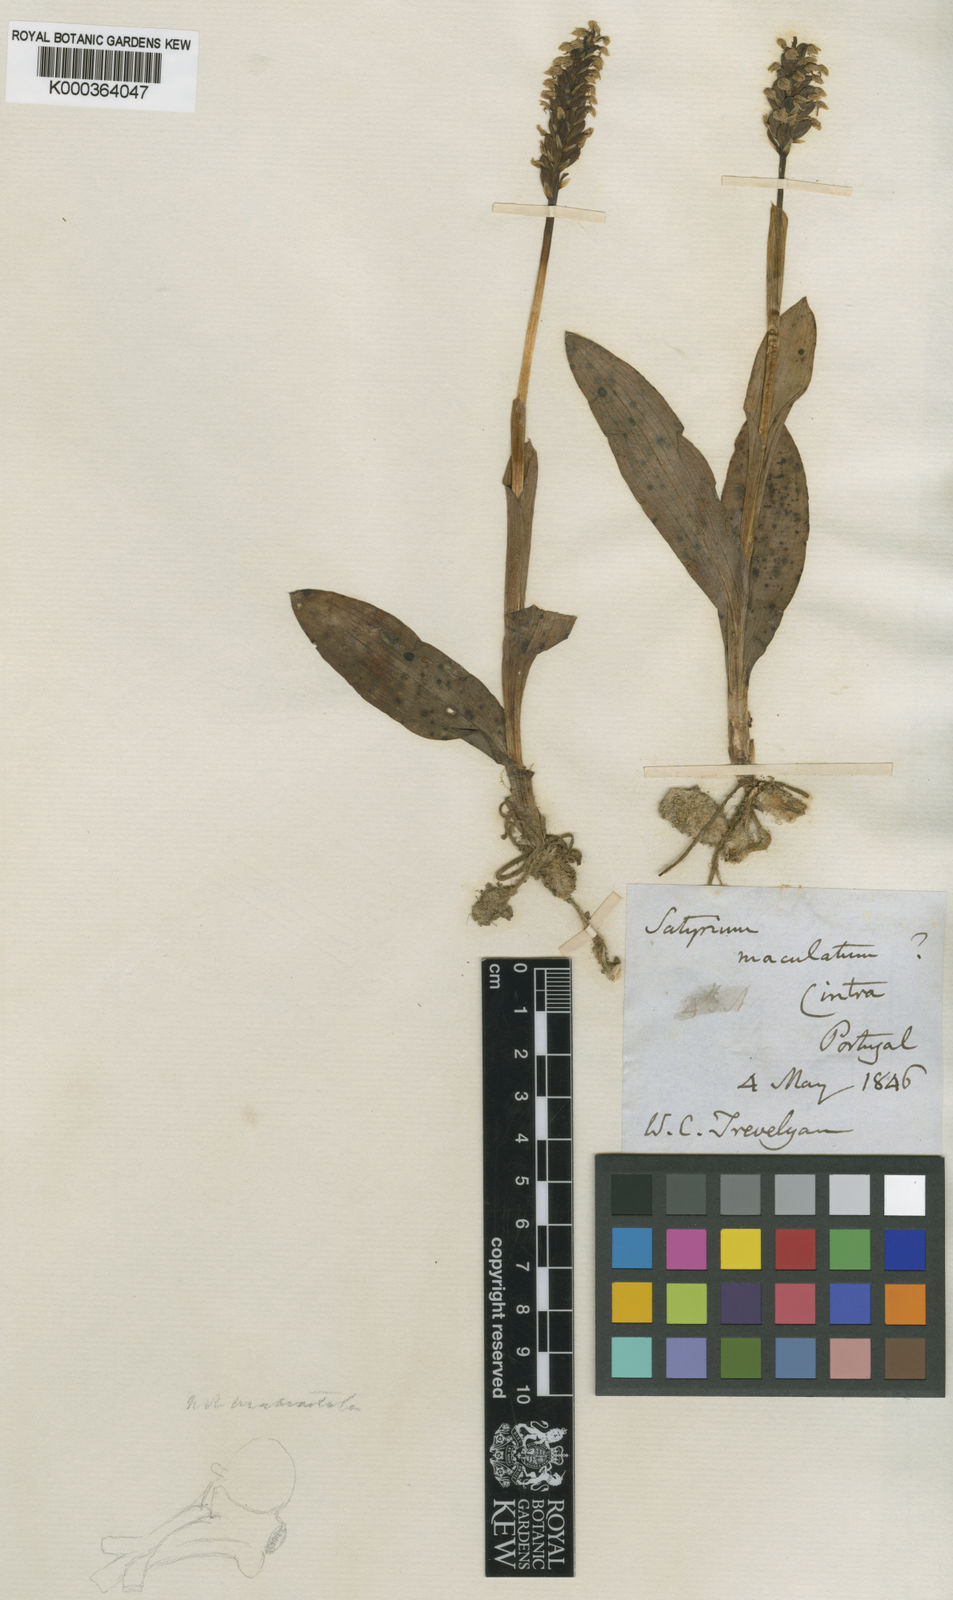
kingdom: Plantae
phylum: Tracheophyta
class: Liliopsida
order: Asparagales
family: Orchidaceae
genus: Neotinea
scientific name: Neotinea maculata
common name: Dense-flowered orchid
